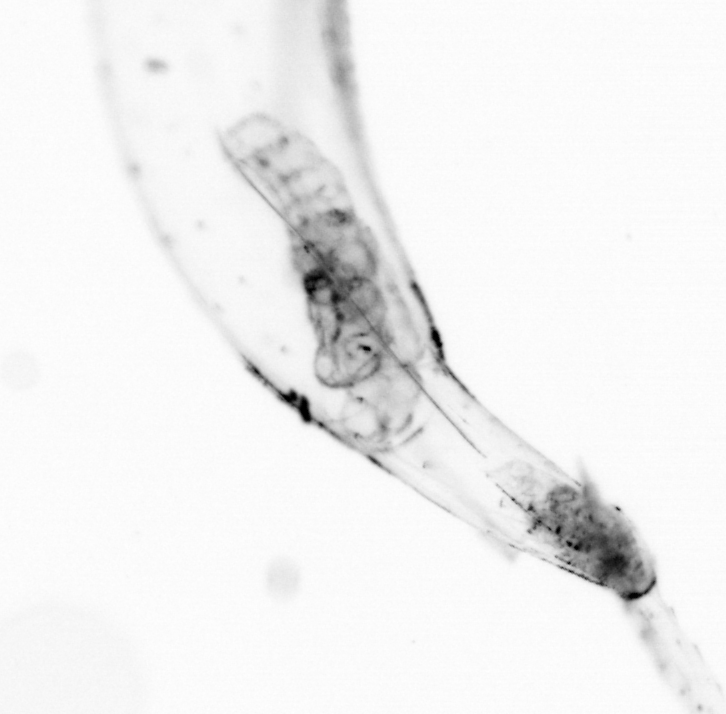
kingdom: Animalia
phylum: Chaetognatha
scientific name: Chaetognatha
